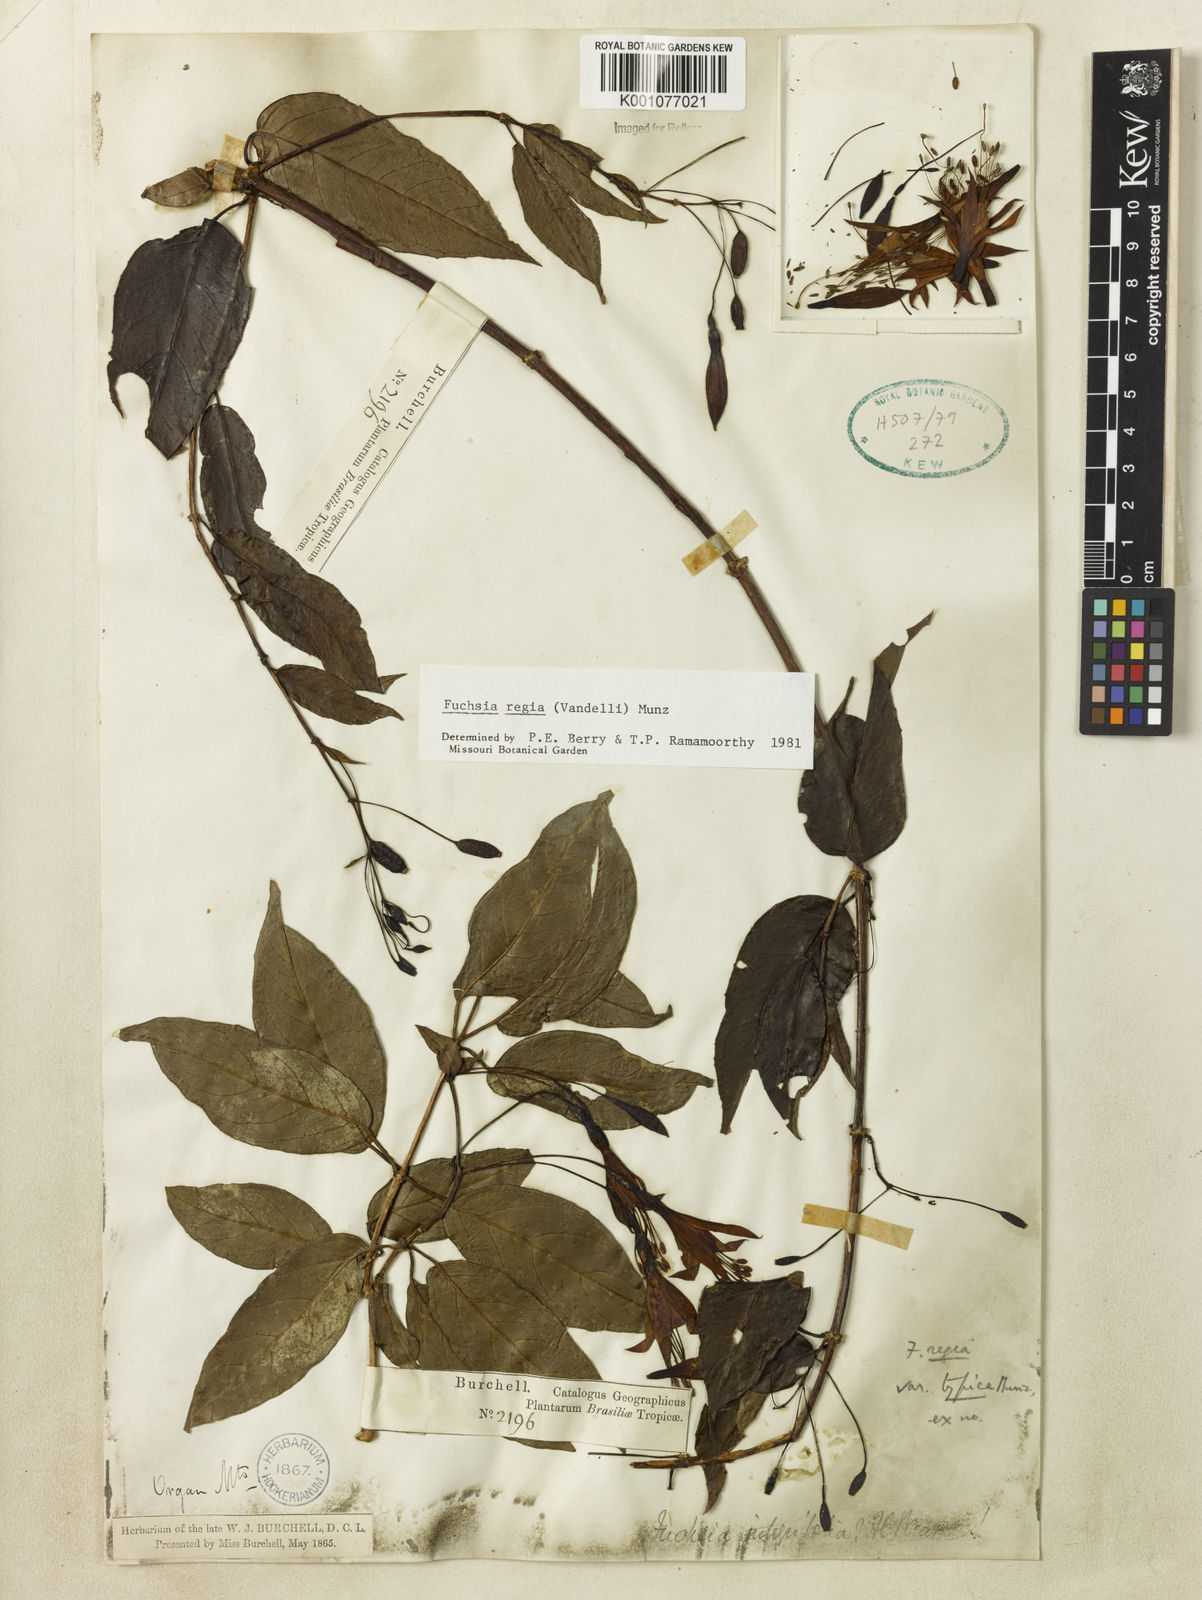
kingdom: Plantae
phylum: Tracheophyta
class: Magnoliopsida
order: Myrtales
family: Onagraceae
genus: Fuchsia
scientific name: Fuchsia regia
